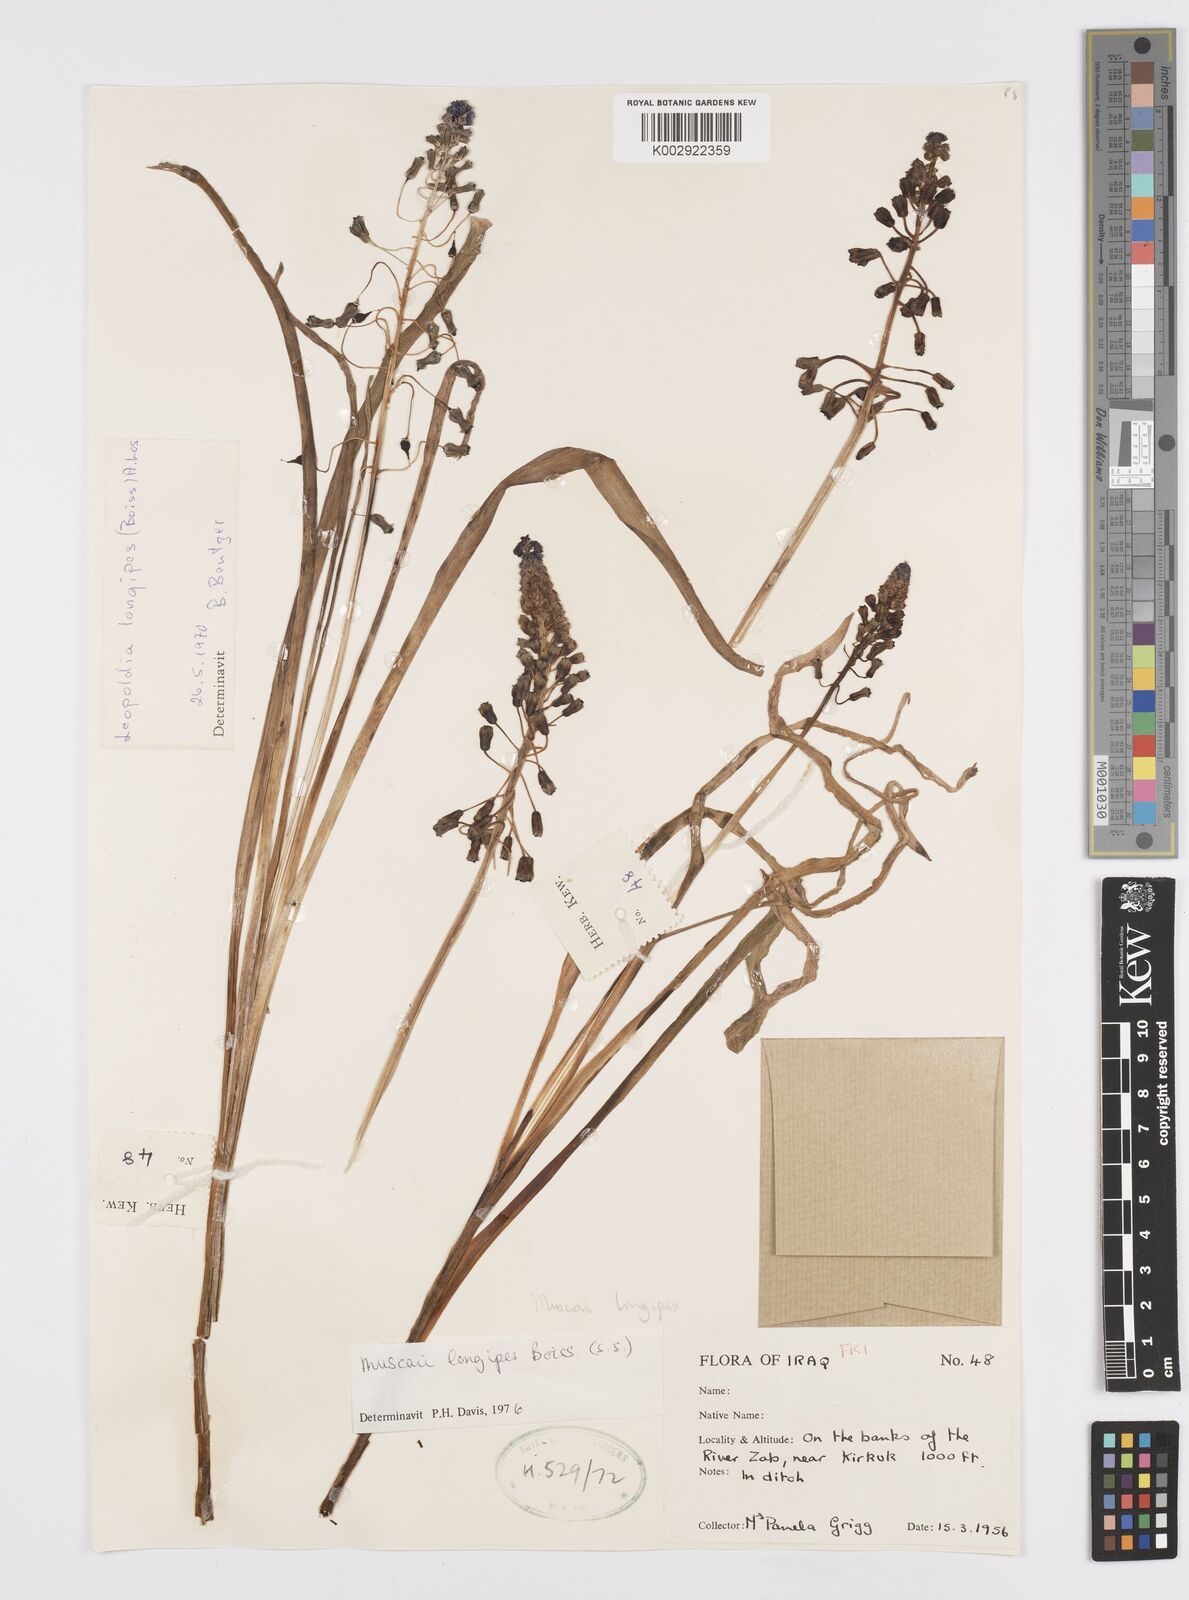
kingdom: Plantae
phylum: Tracheophyta
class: Liliopsida
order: Asparagales
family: Asparagaceae
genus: Muscari
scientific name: Muscari longipes
